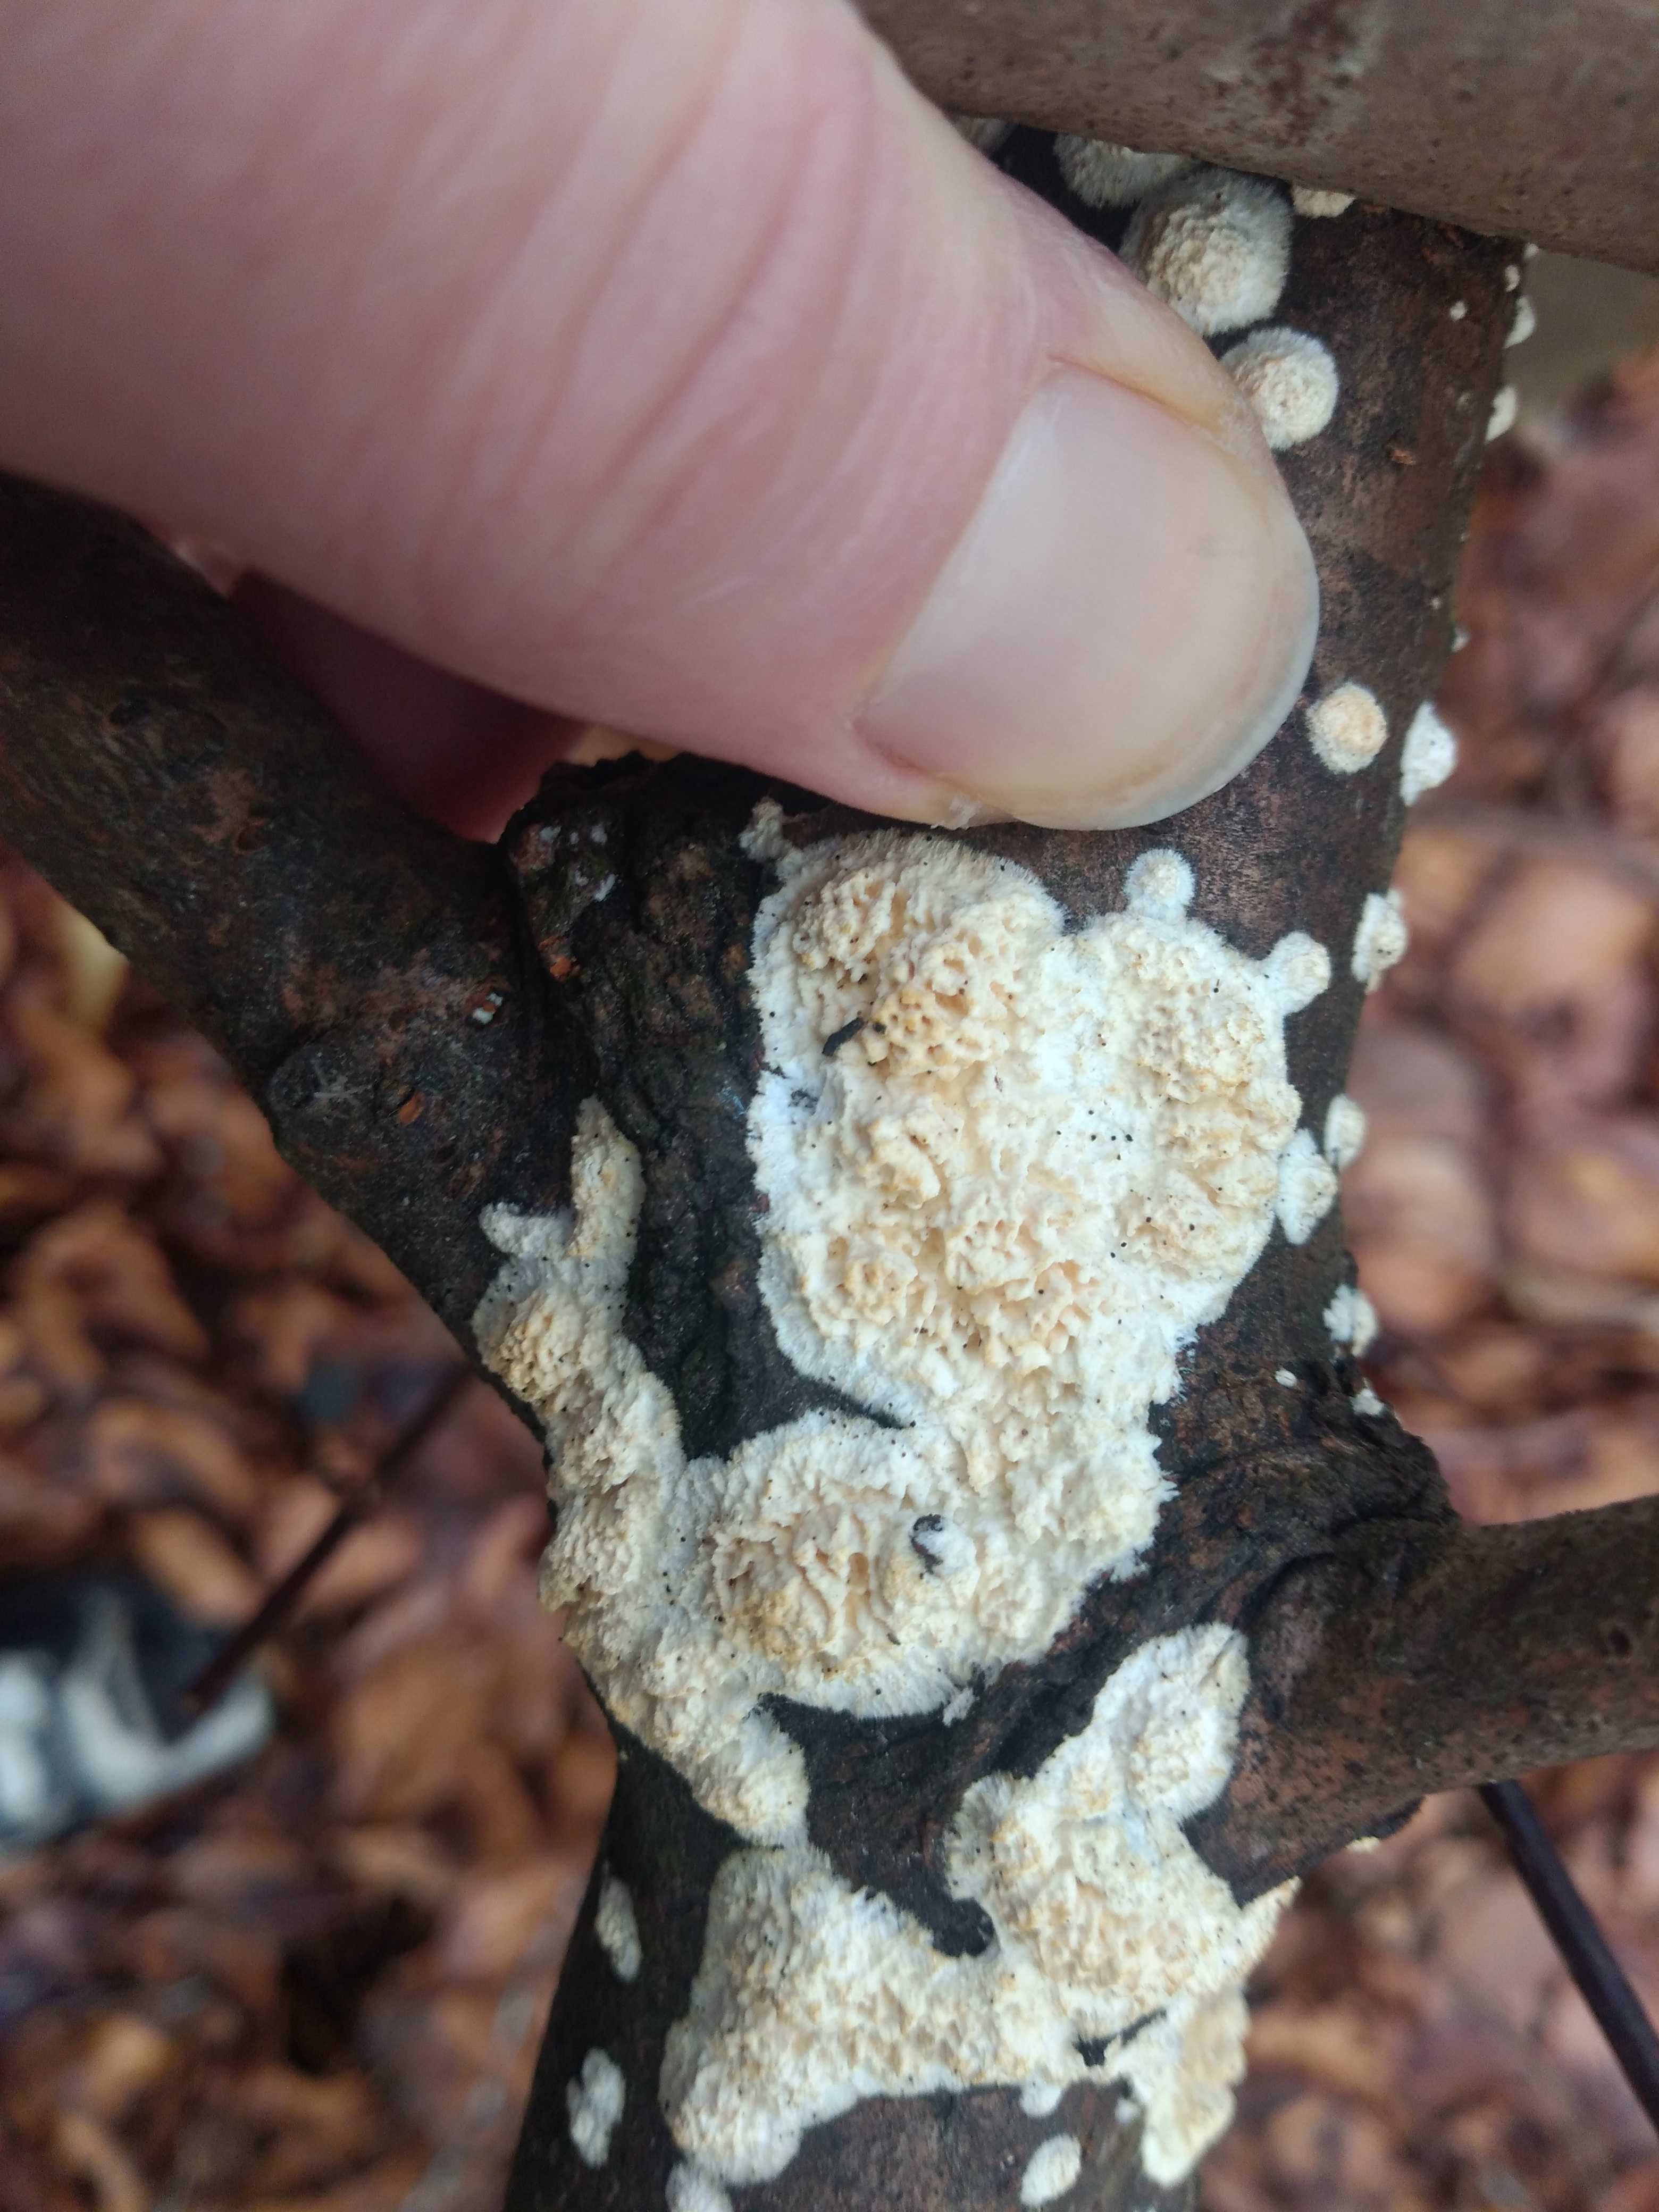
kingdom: Fungi
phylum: Basidiomycota
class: Agaricomycetes
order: Hymenochaetales
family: Schizoporaceae
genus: Xylodon
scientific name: Xylodon radula
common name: grovtandet kalkskind
